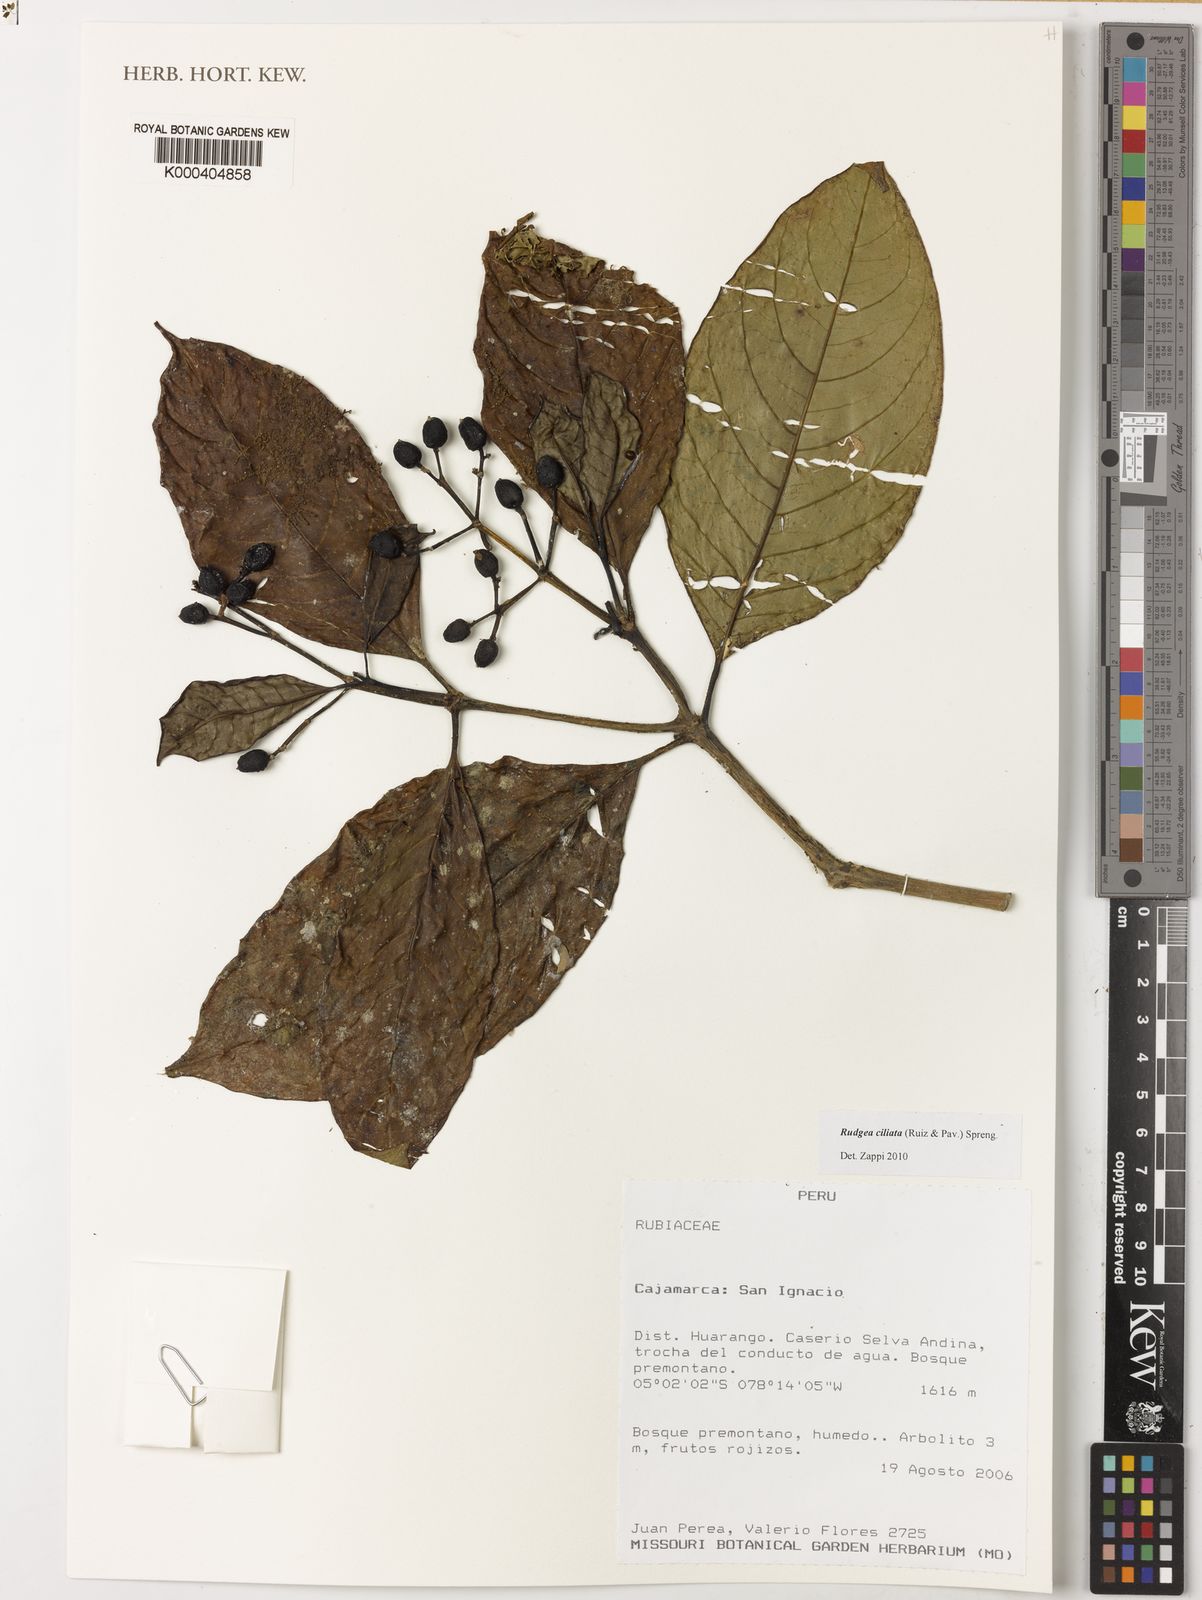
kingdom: Plantae
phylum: Tracheophyta
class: Magnoliopsida
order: Gentianales
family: Rubiaceae
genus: Rudgea
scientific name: Rudgea ciliata
